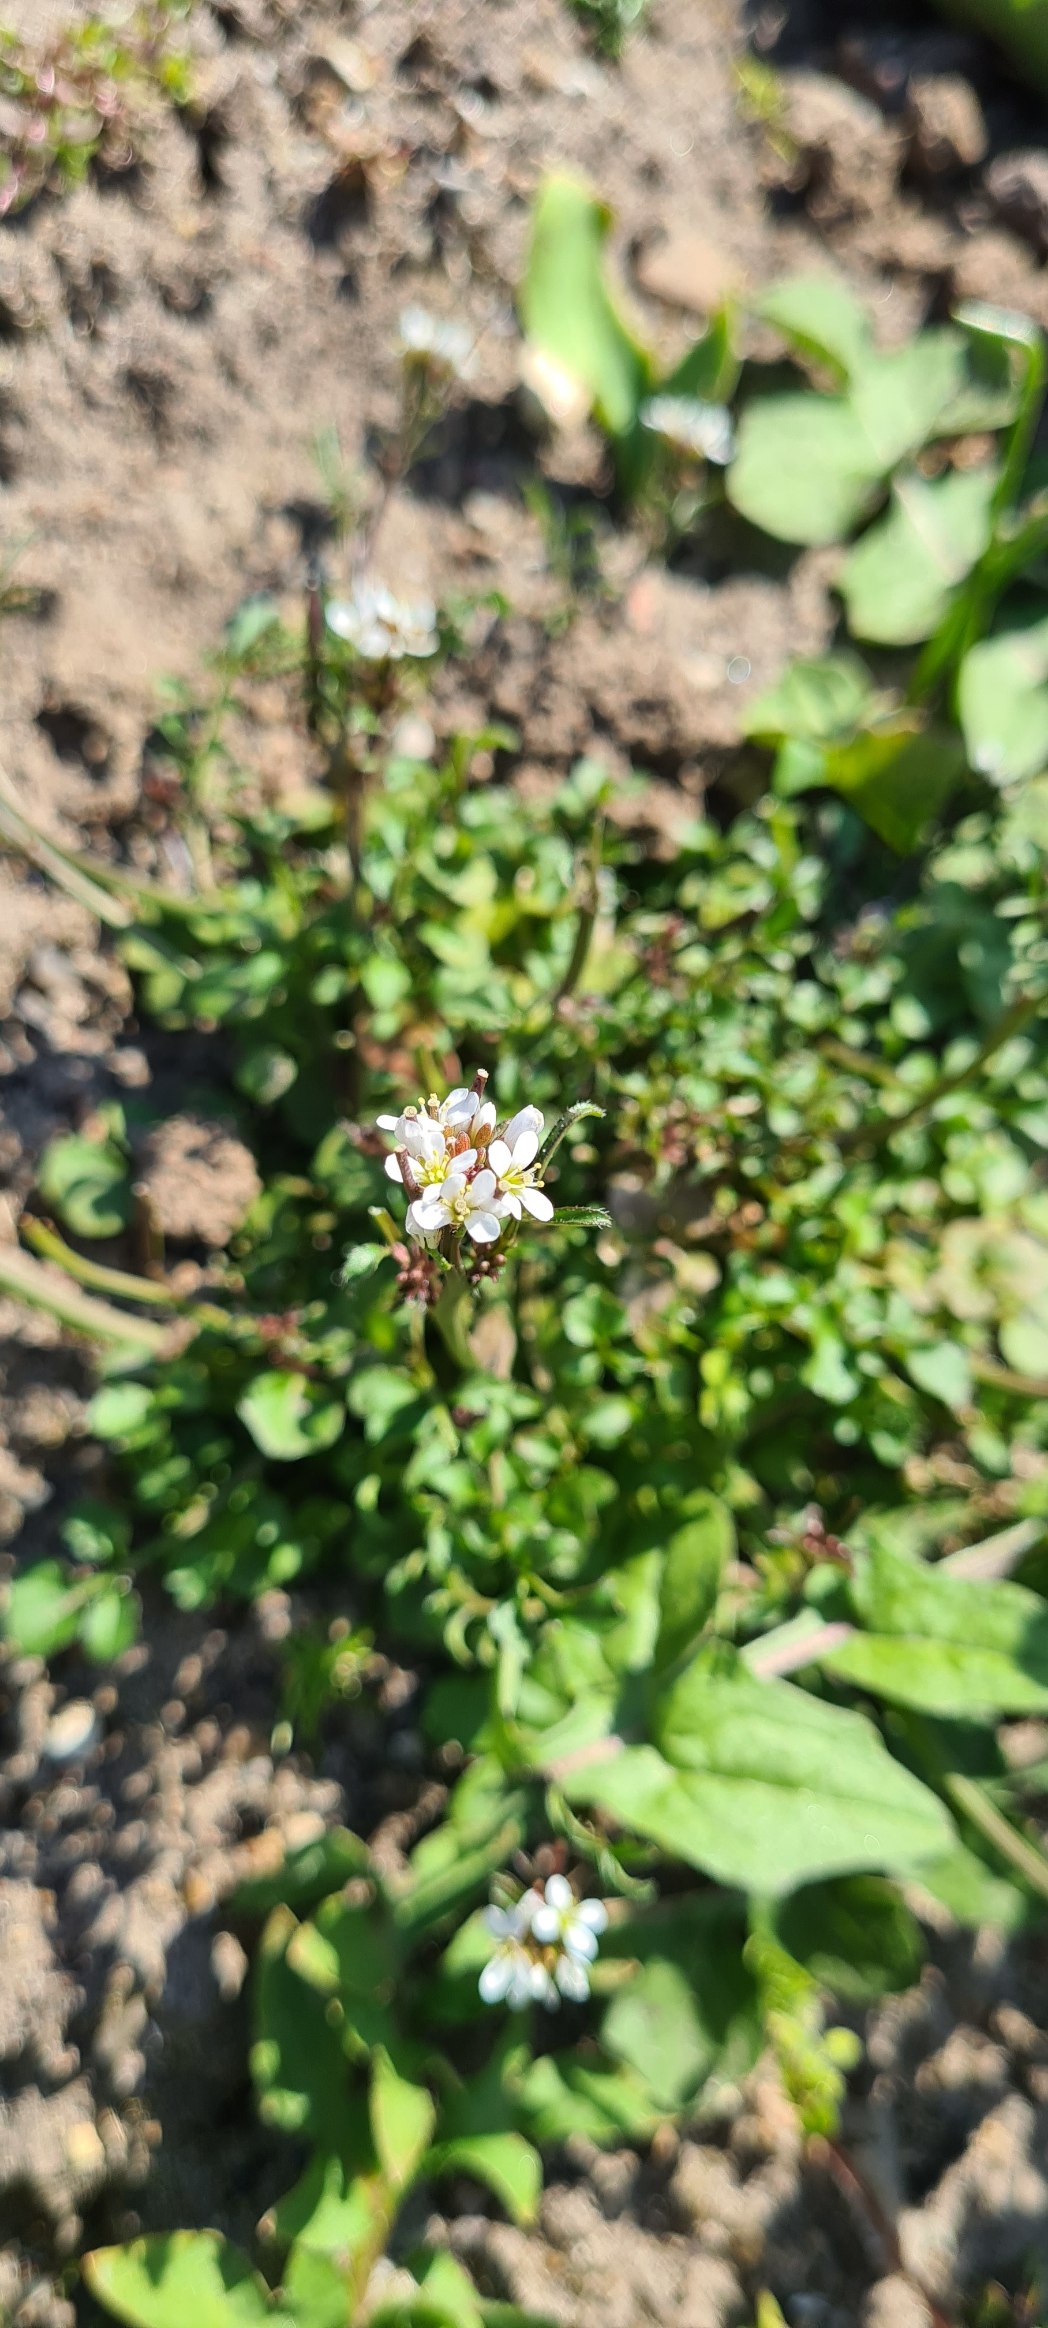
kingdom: Plantae
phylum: Tracheophyta
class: Magnoliopsida
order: Brassicales
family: Brassicaceae
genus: Cardamine
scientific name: Cardamine hirsuta
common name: Roset-springklap
